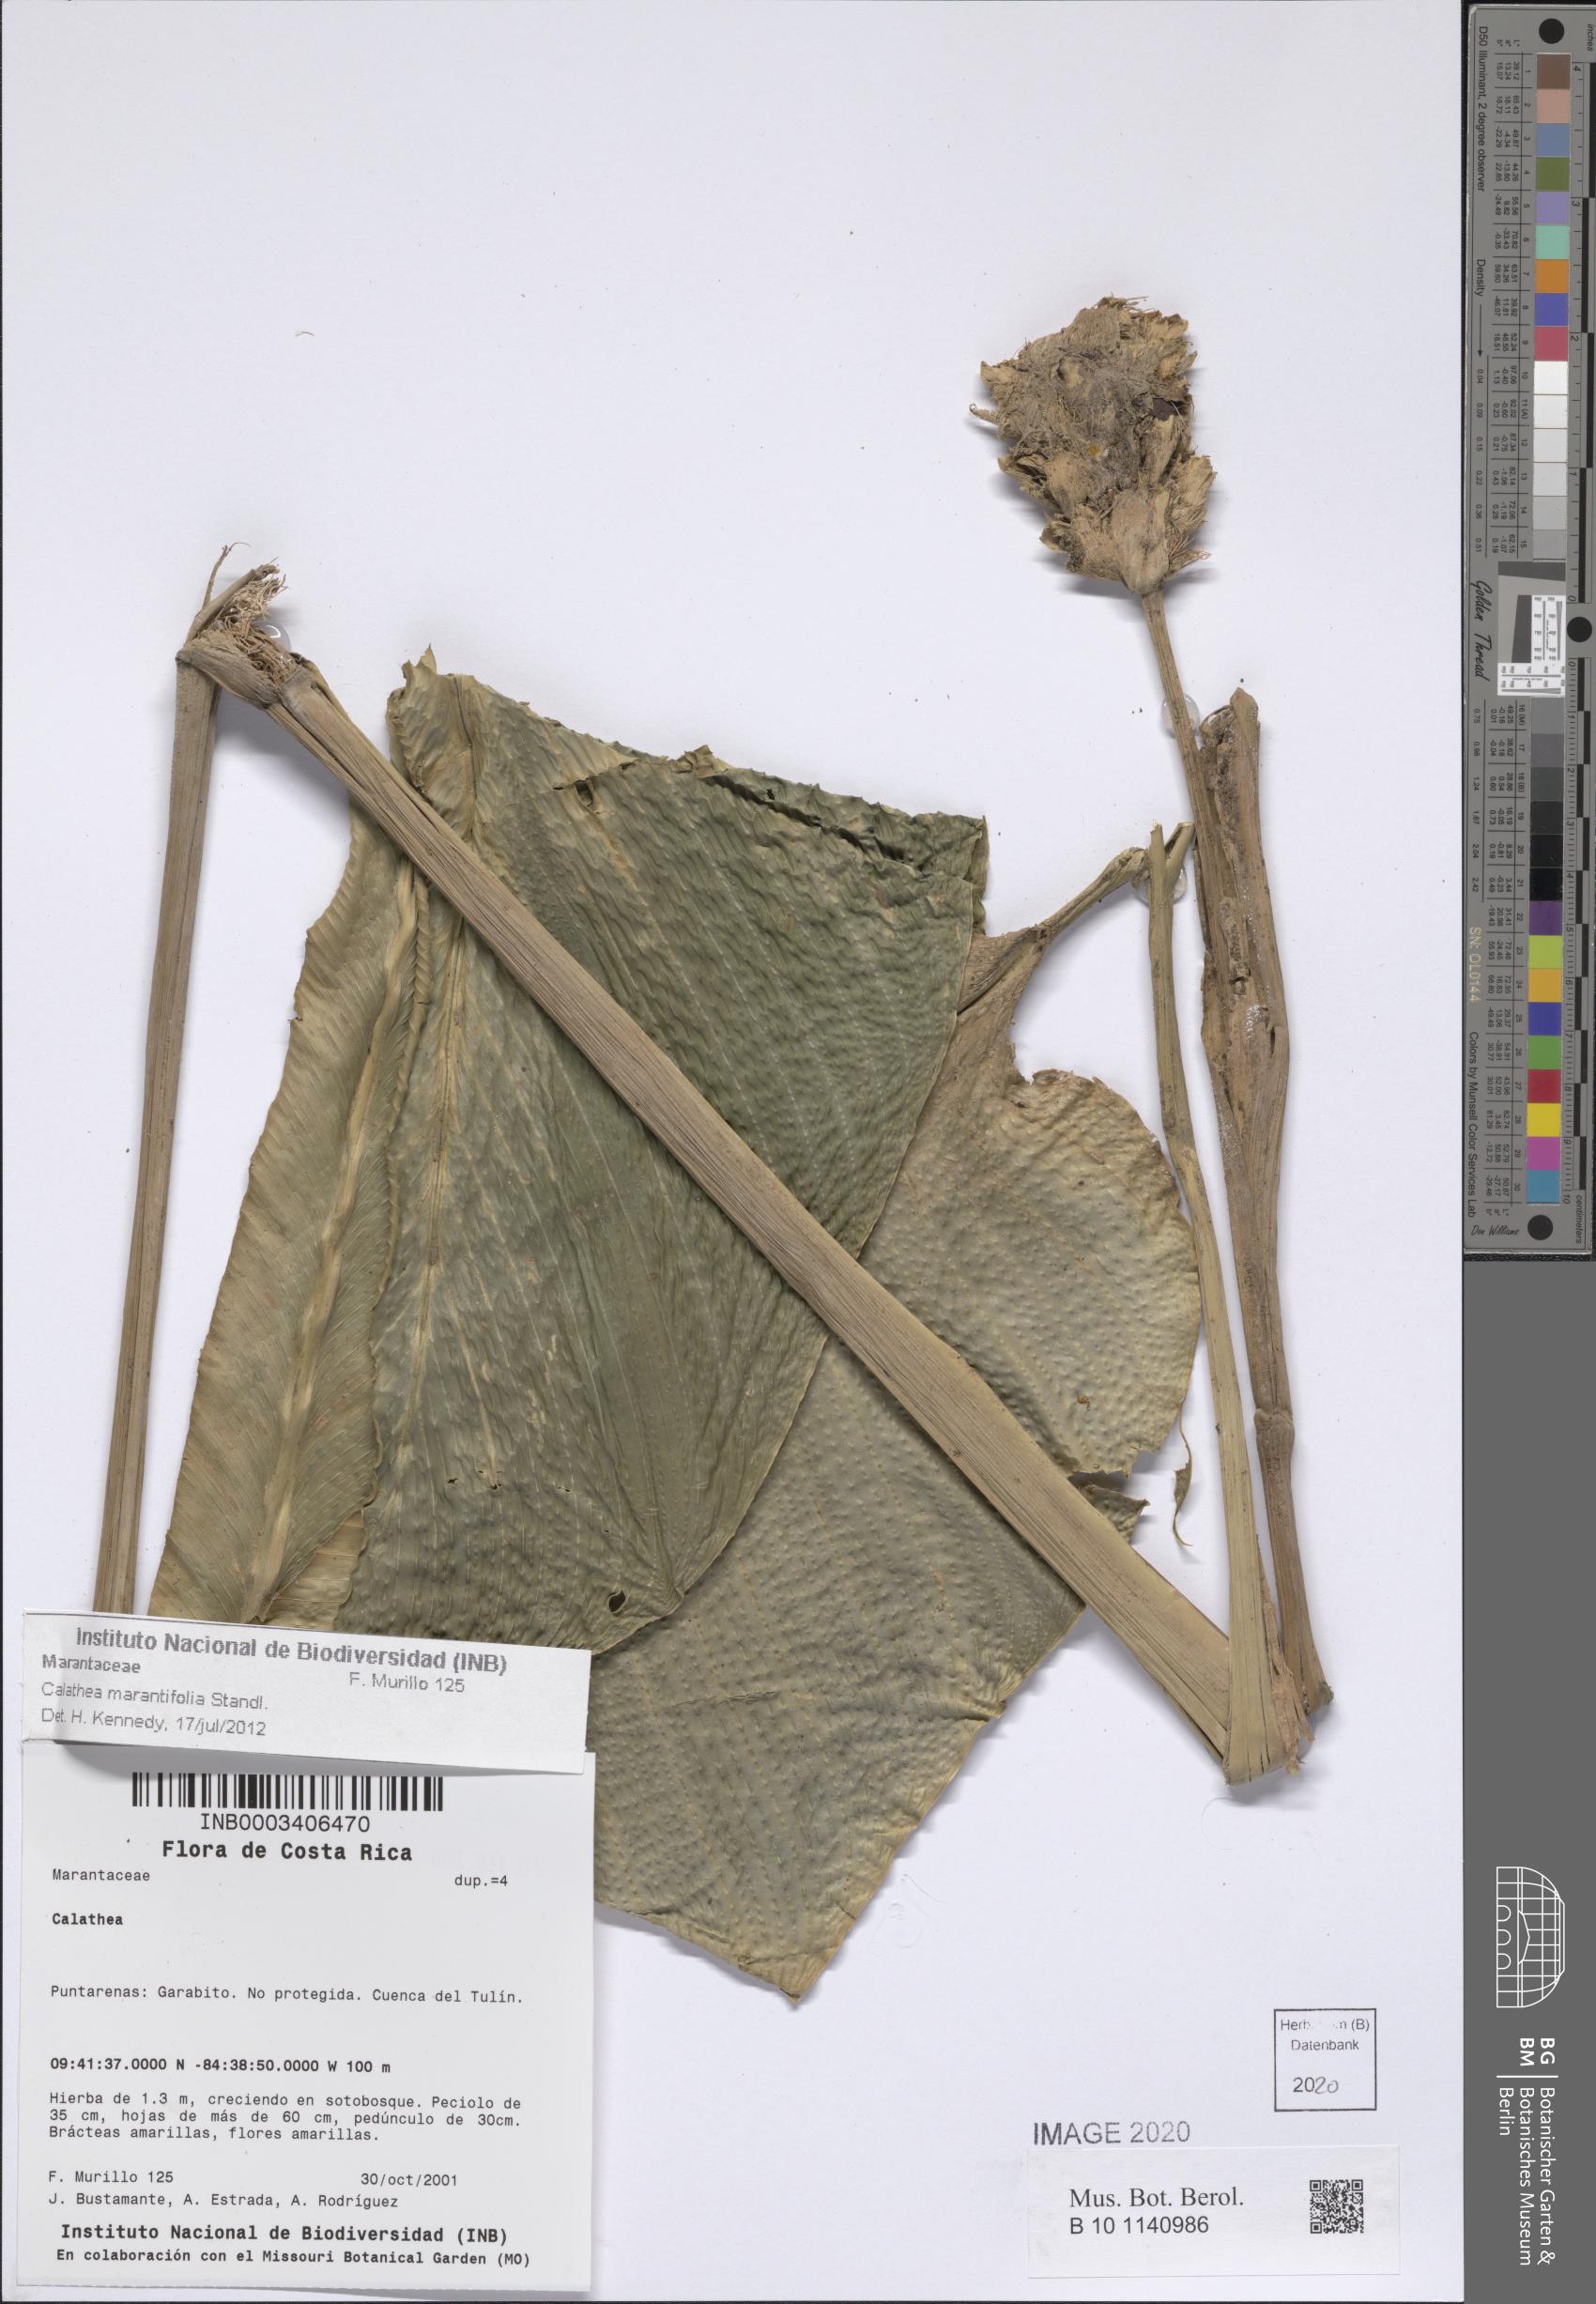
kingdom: Plantae
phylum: Tracheophyta
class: Liliopsida
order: Zingiberales
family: Marantaceae
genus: Goeppertia
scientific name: Goeppertia marantifolia
